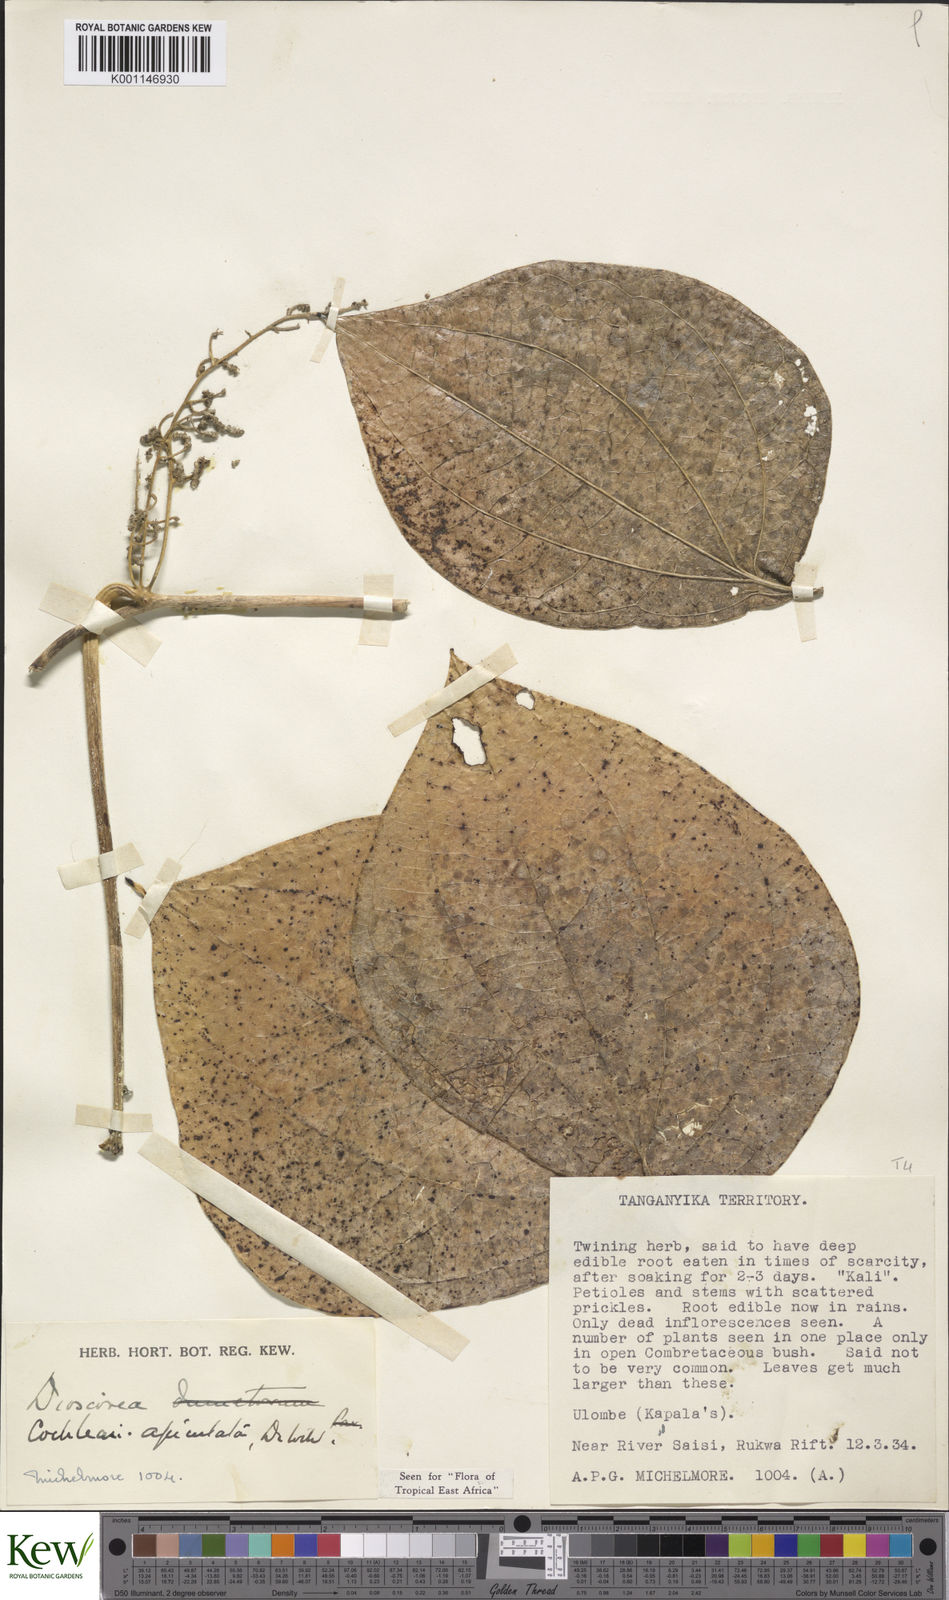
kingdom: Plantae
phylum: Tracheophyta
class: Liliopsida
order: Dioscoreales
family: Dioscoreaceae
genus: Dioscorea
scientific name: Dioscorea cochleariapiculata
